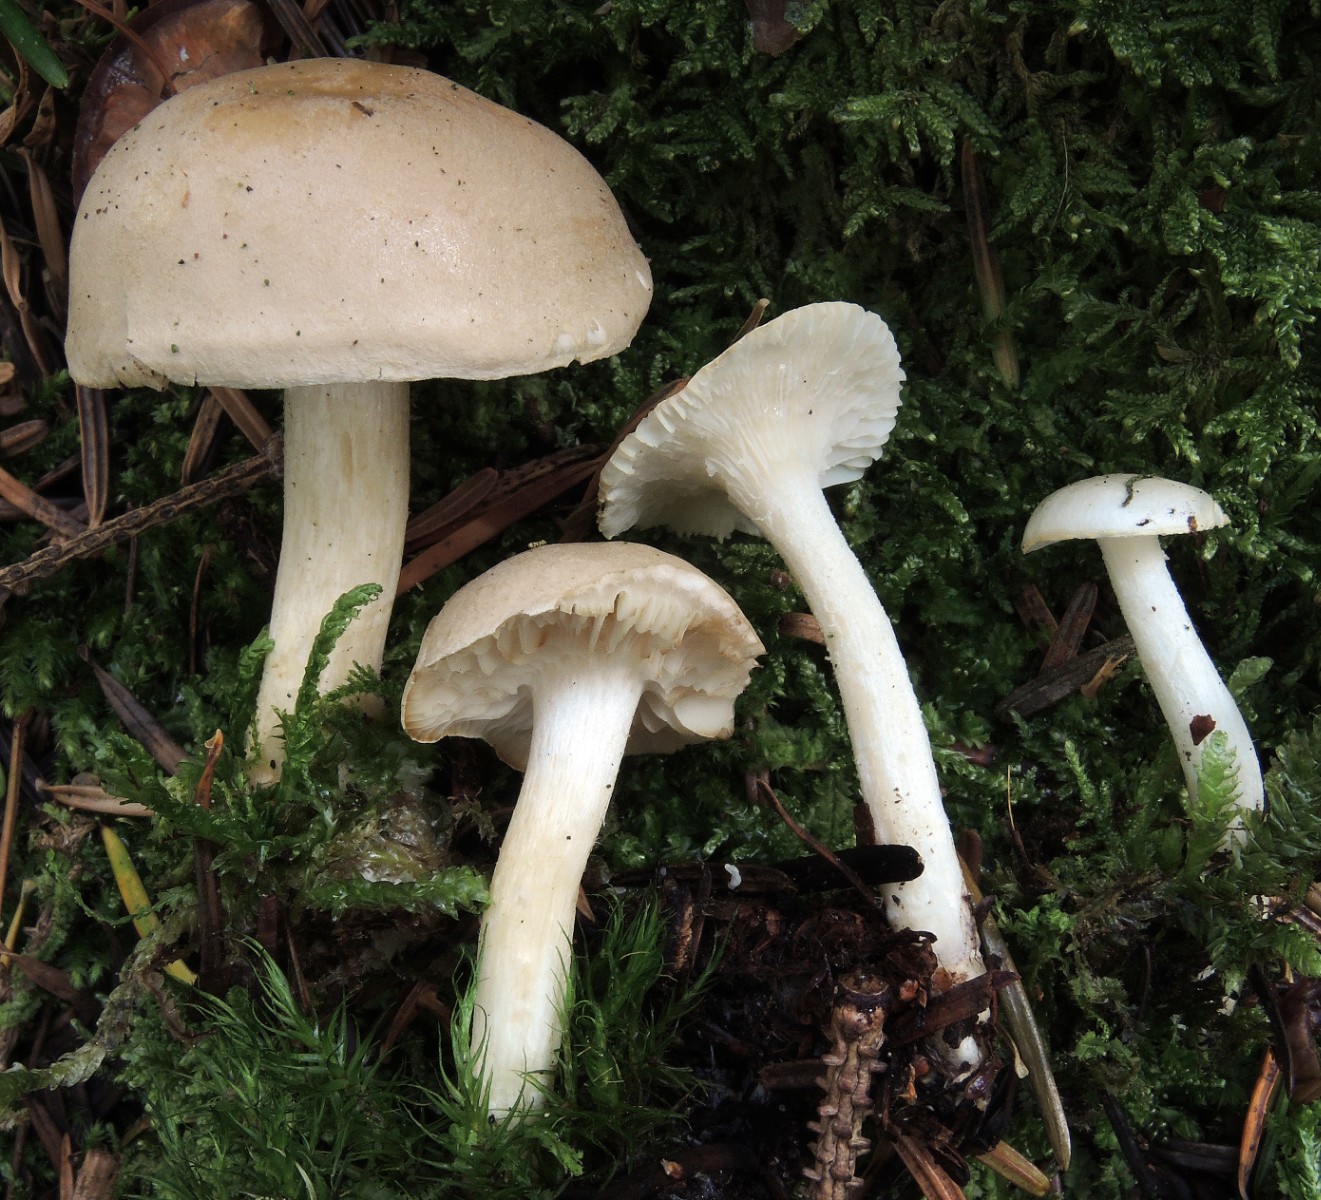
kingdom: Fungi
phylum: Basidiomycota
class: Agaricomycetes
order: Agaricales
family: Tricholomataceae
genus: Tricholoma
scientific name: Tricholoma inamoenum
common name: højstokket ridderhat
